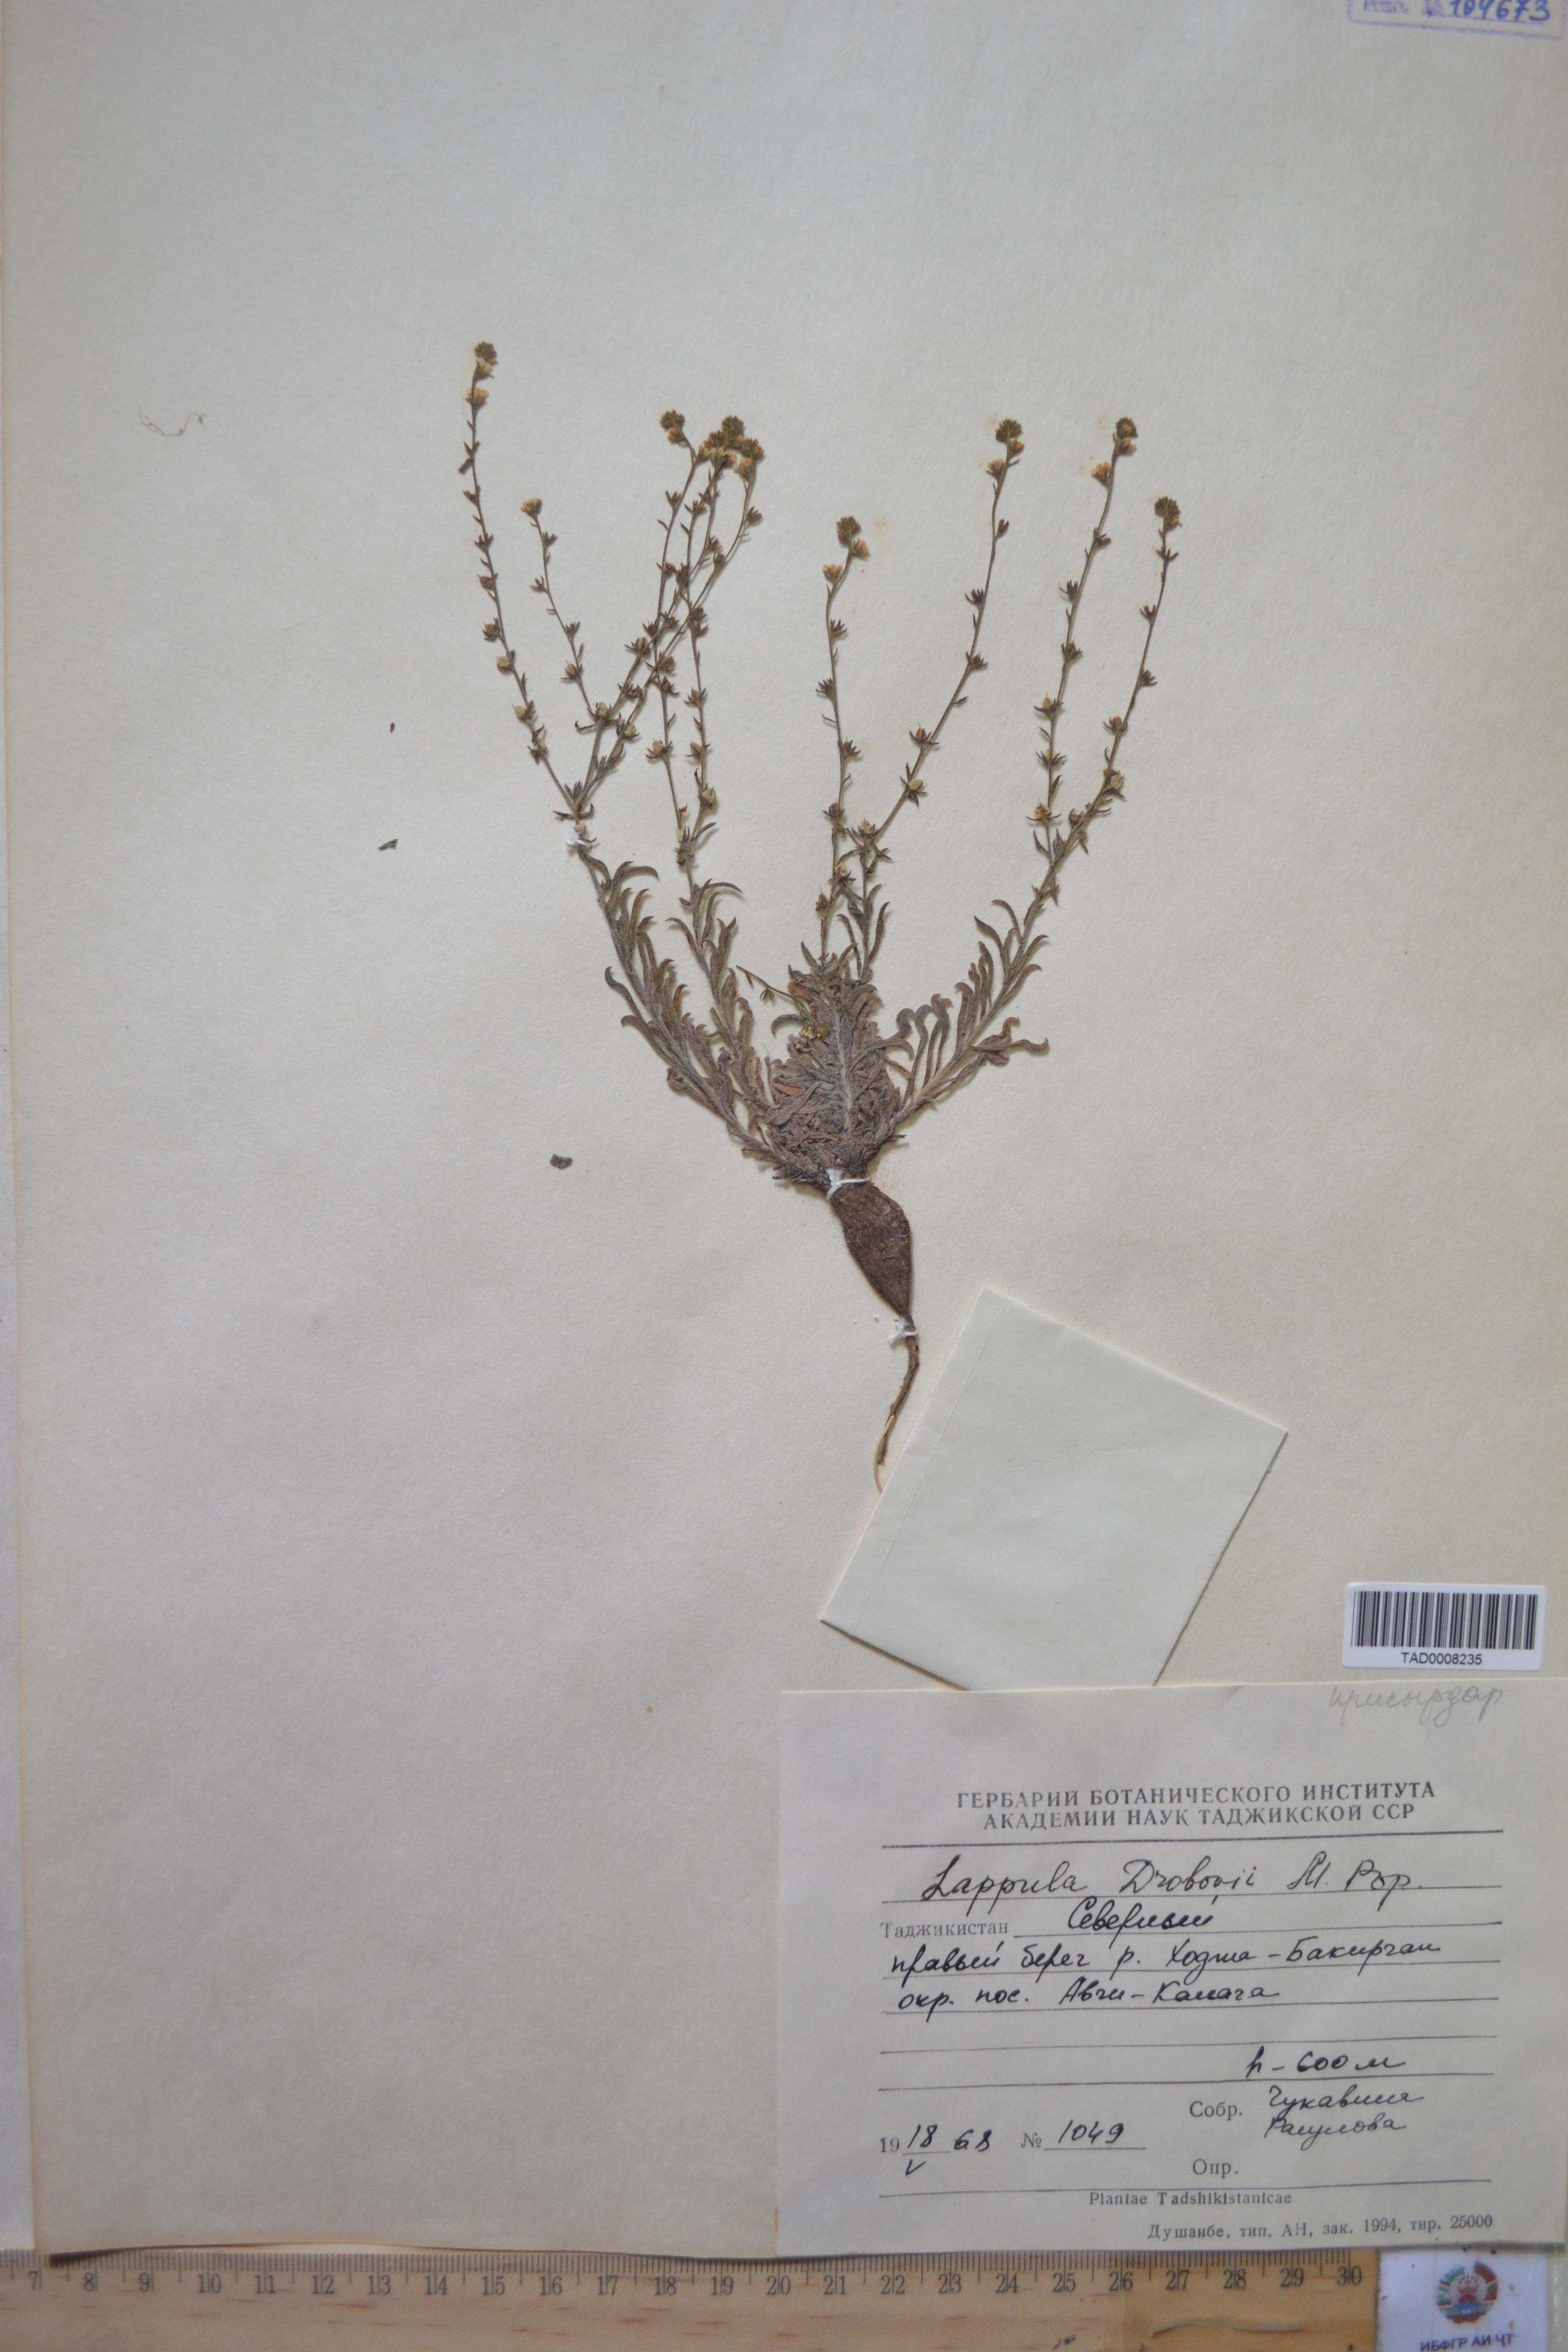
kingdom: Plantae
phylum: Tracheophyta
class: Magnoliopsida
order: Boraginales
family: Boraginaceae
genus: Rochelia
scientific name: Rochelia drobovii
